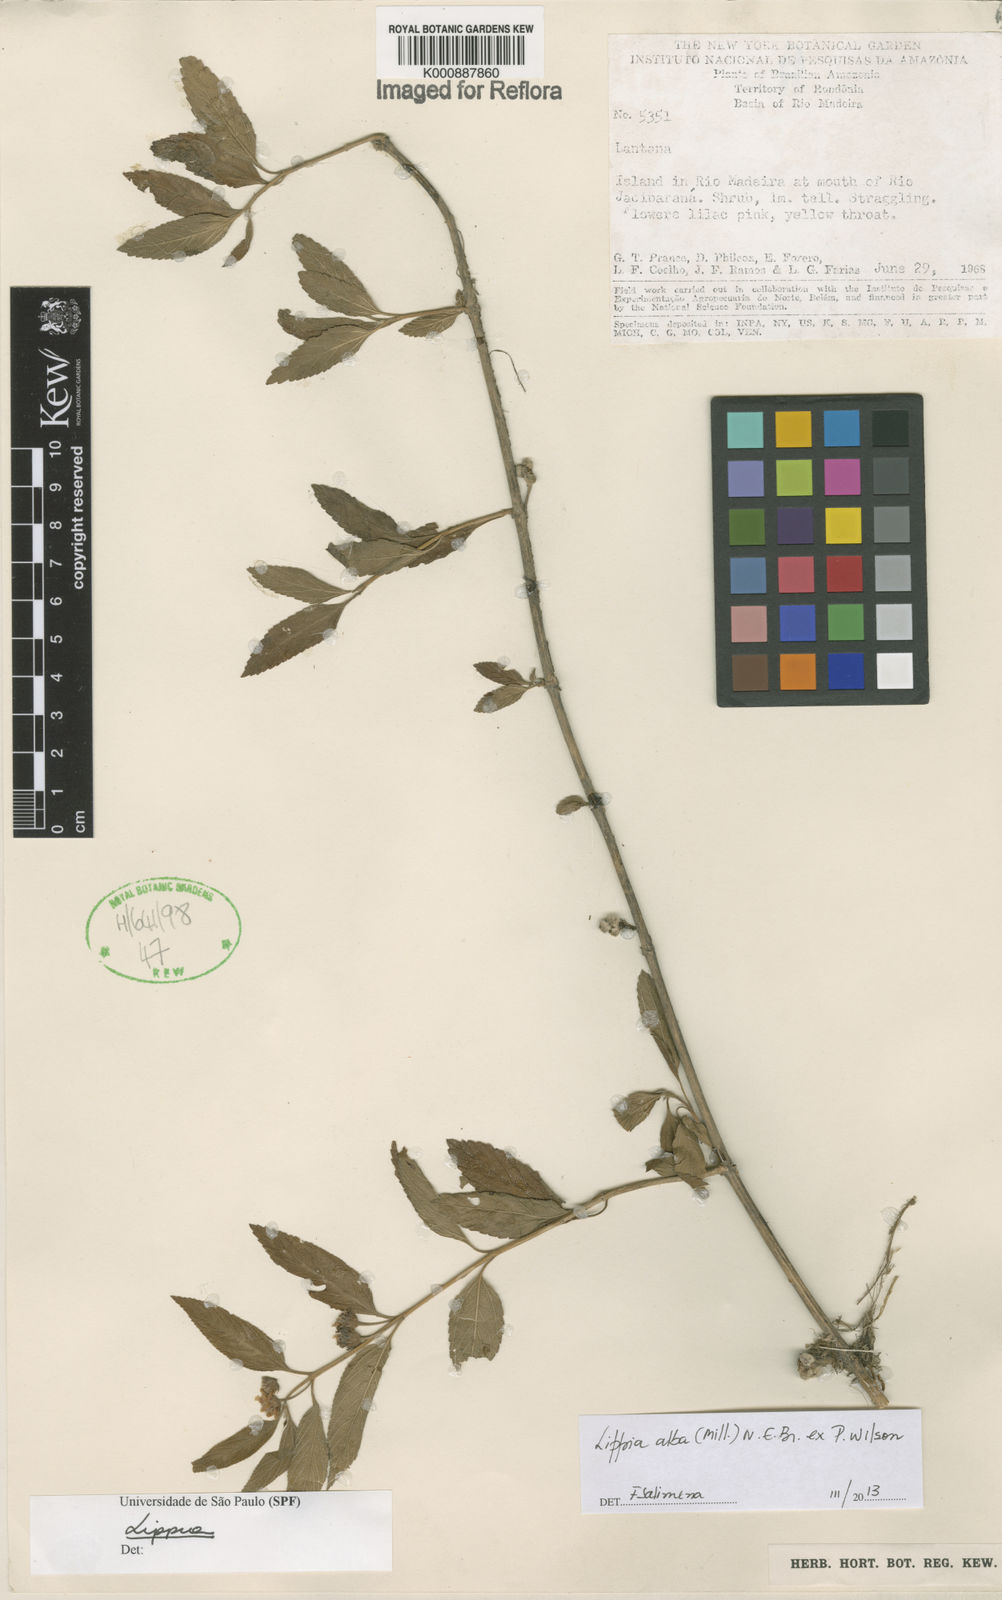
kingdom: Plantae
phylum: Tracheophyta
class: Magnoliopsida
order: Lamiales
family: Verbenaceae
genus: Lippia
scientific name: Lippia
